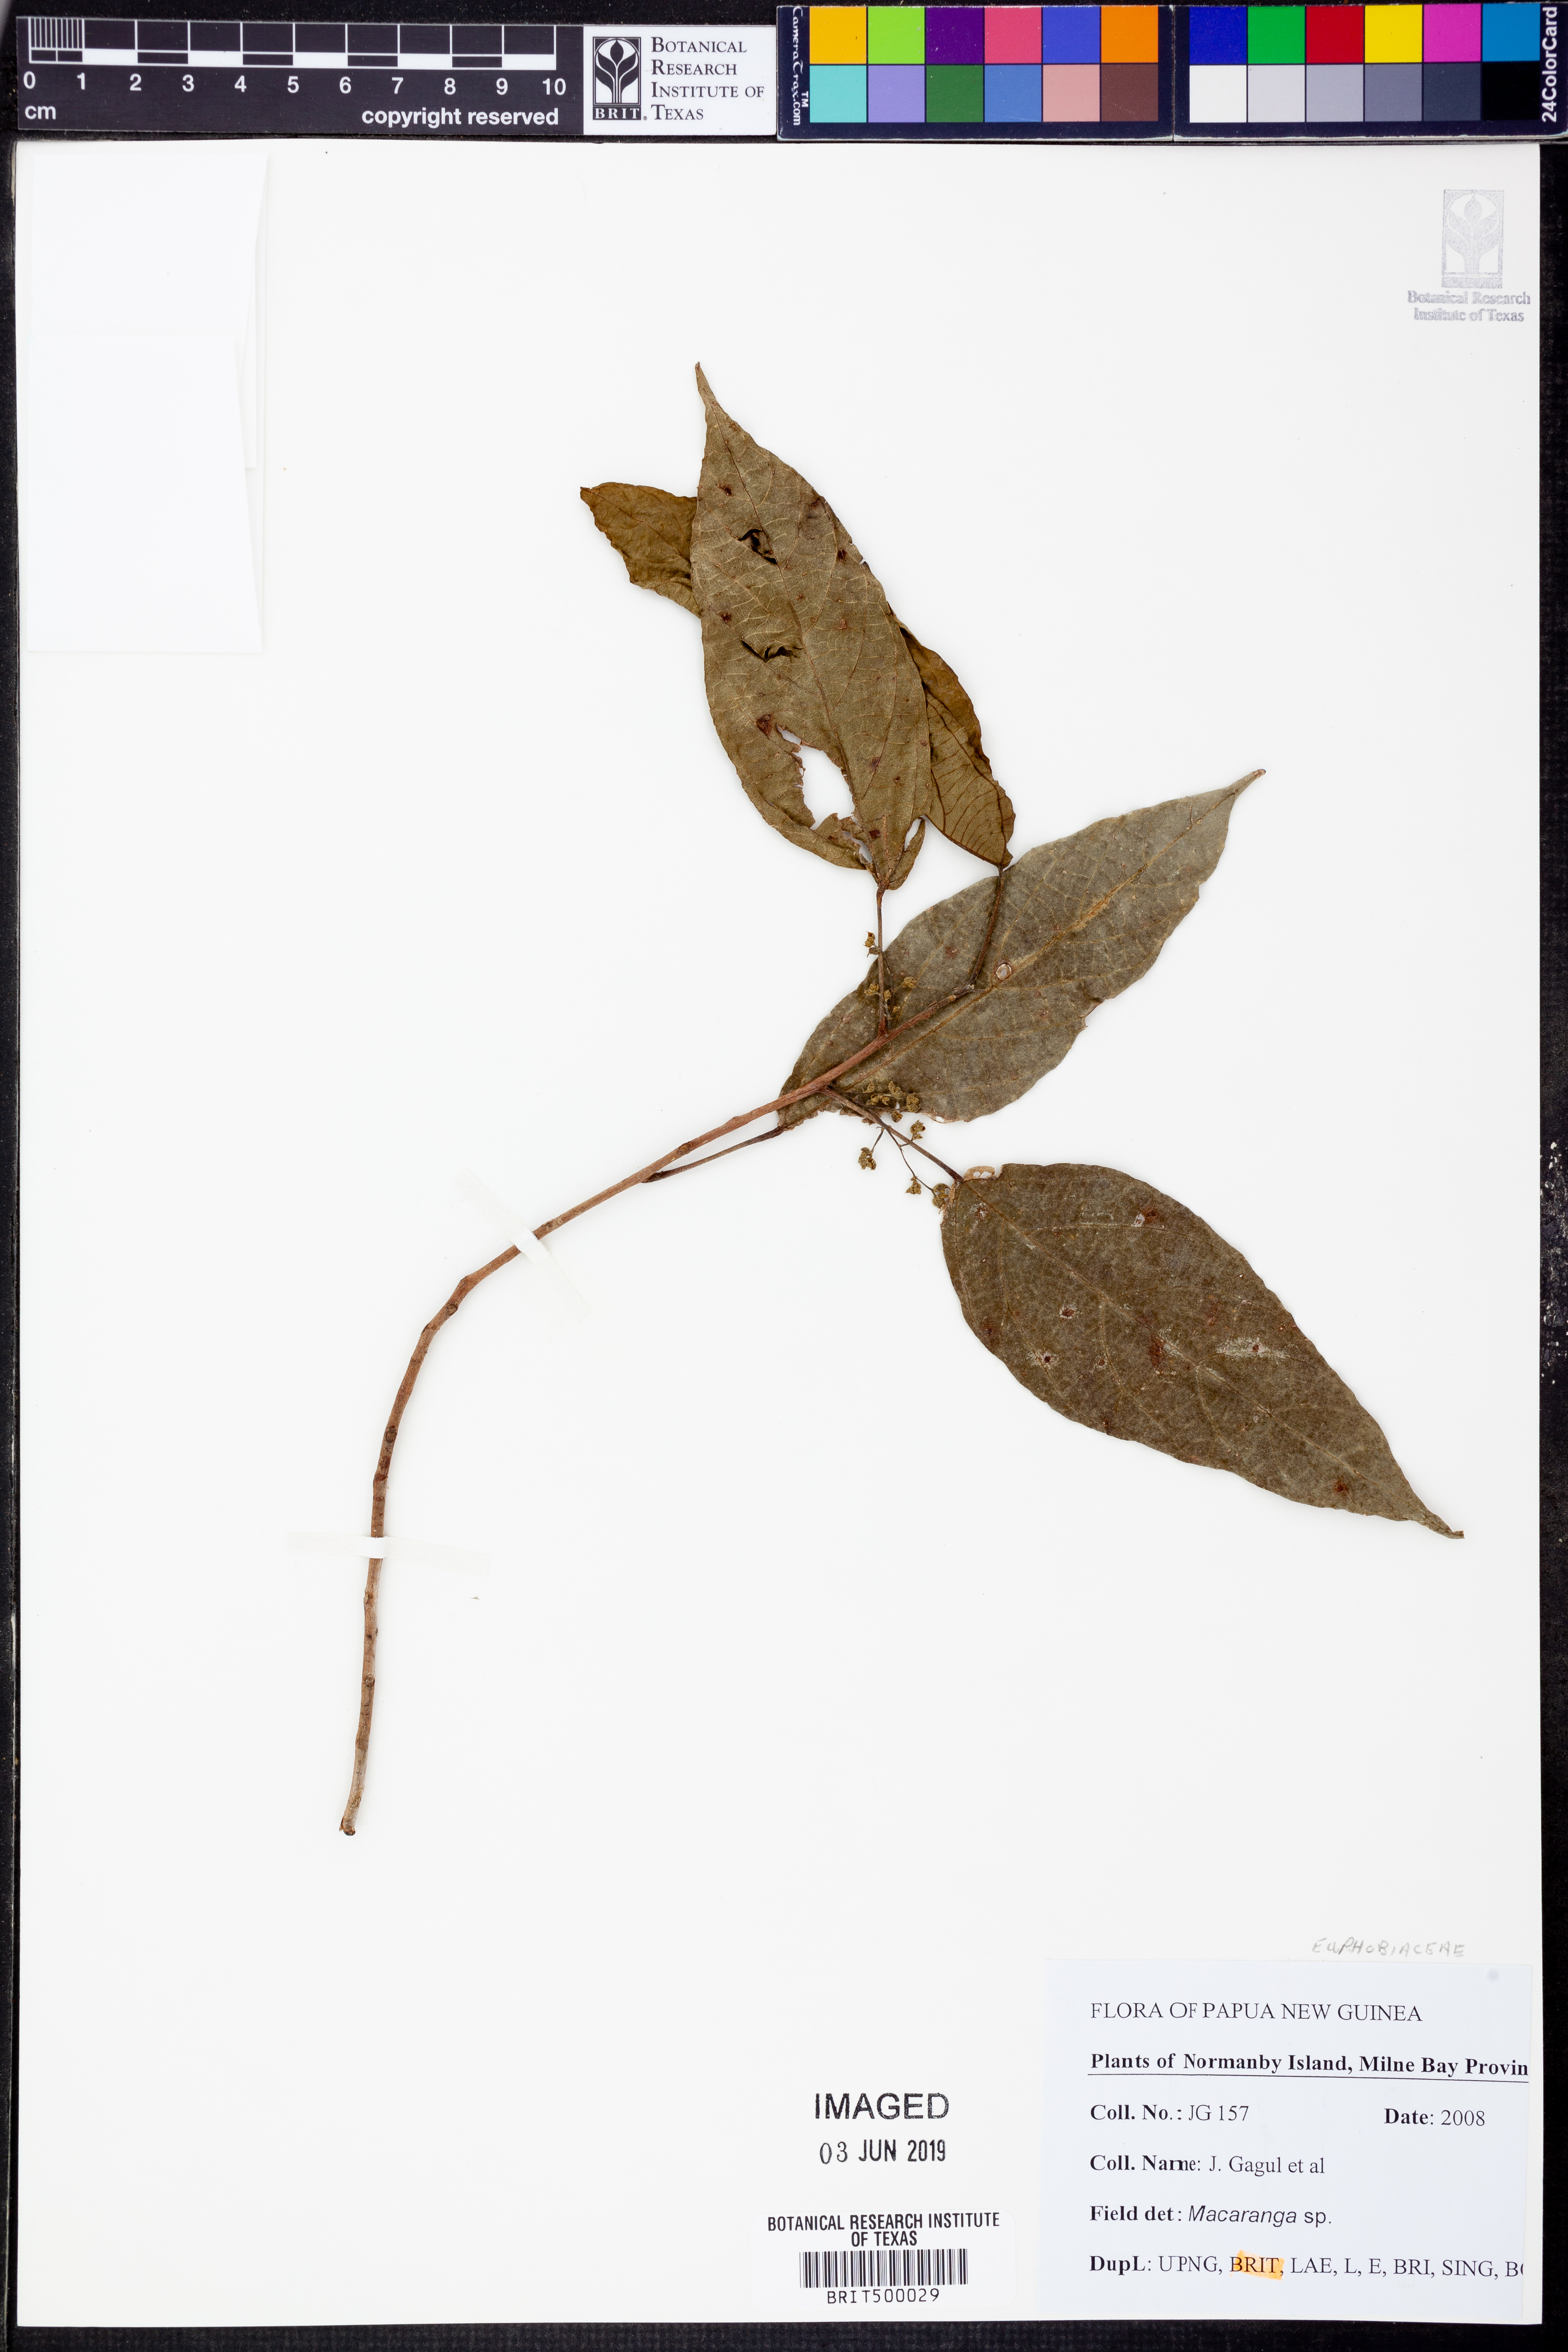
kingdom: Plantae
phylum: Tracheophyta
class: Magnoliopsida
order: Malpighiales
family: Euphorbiaceae
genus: Macaranga
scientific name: Macaranga
